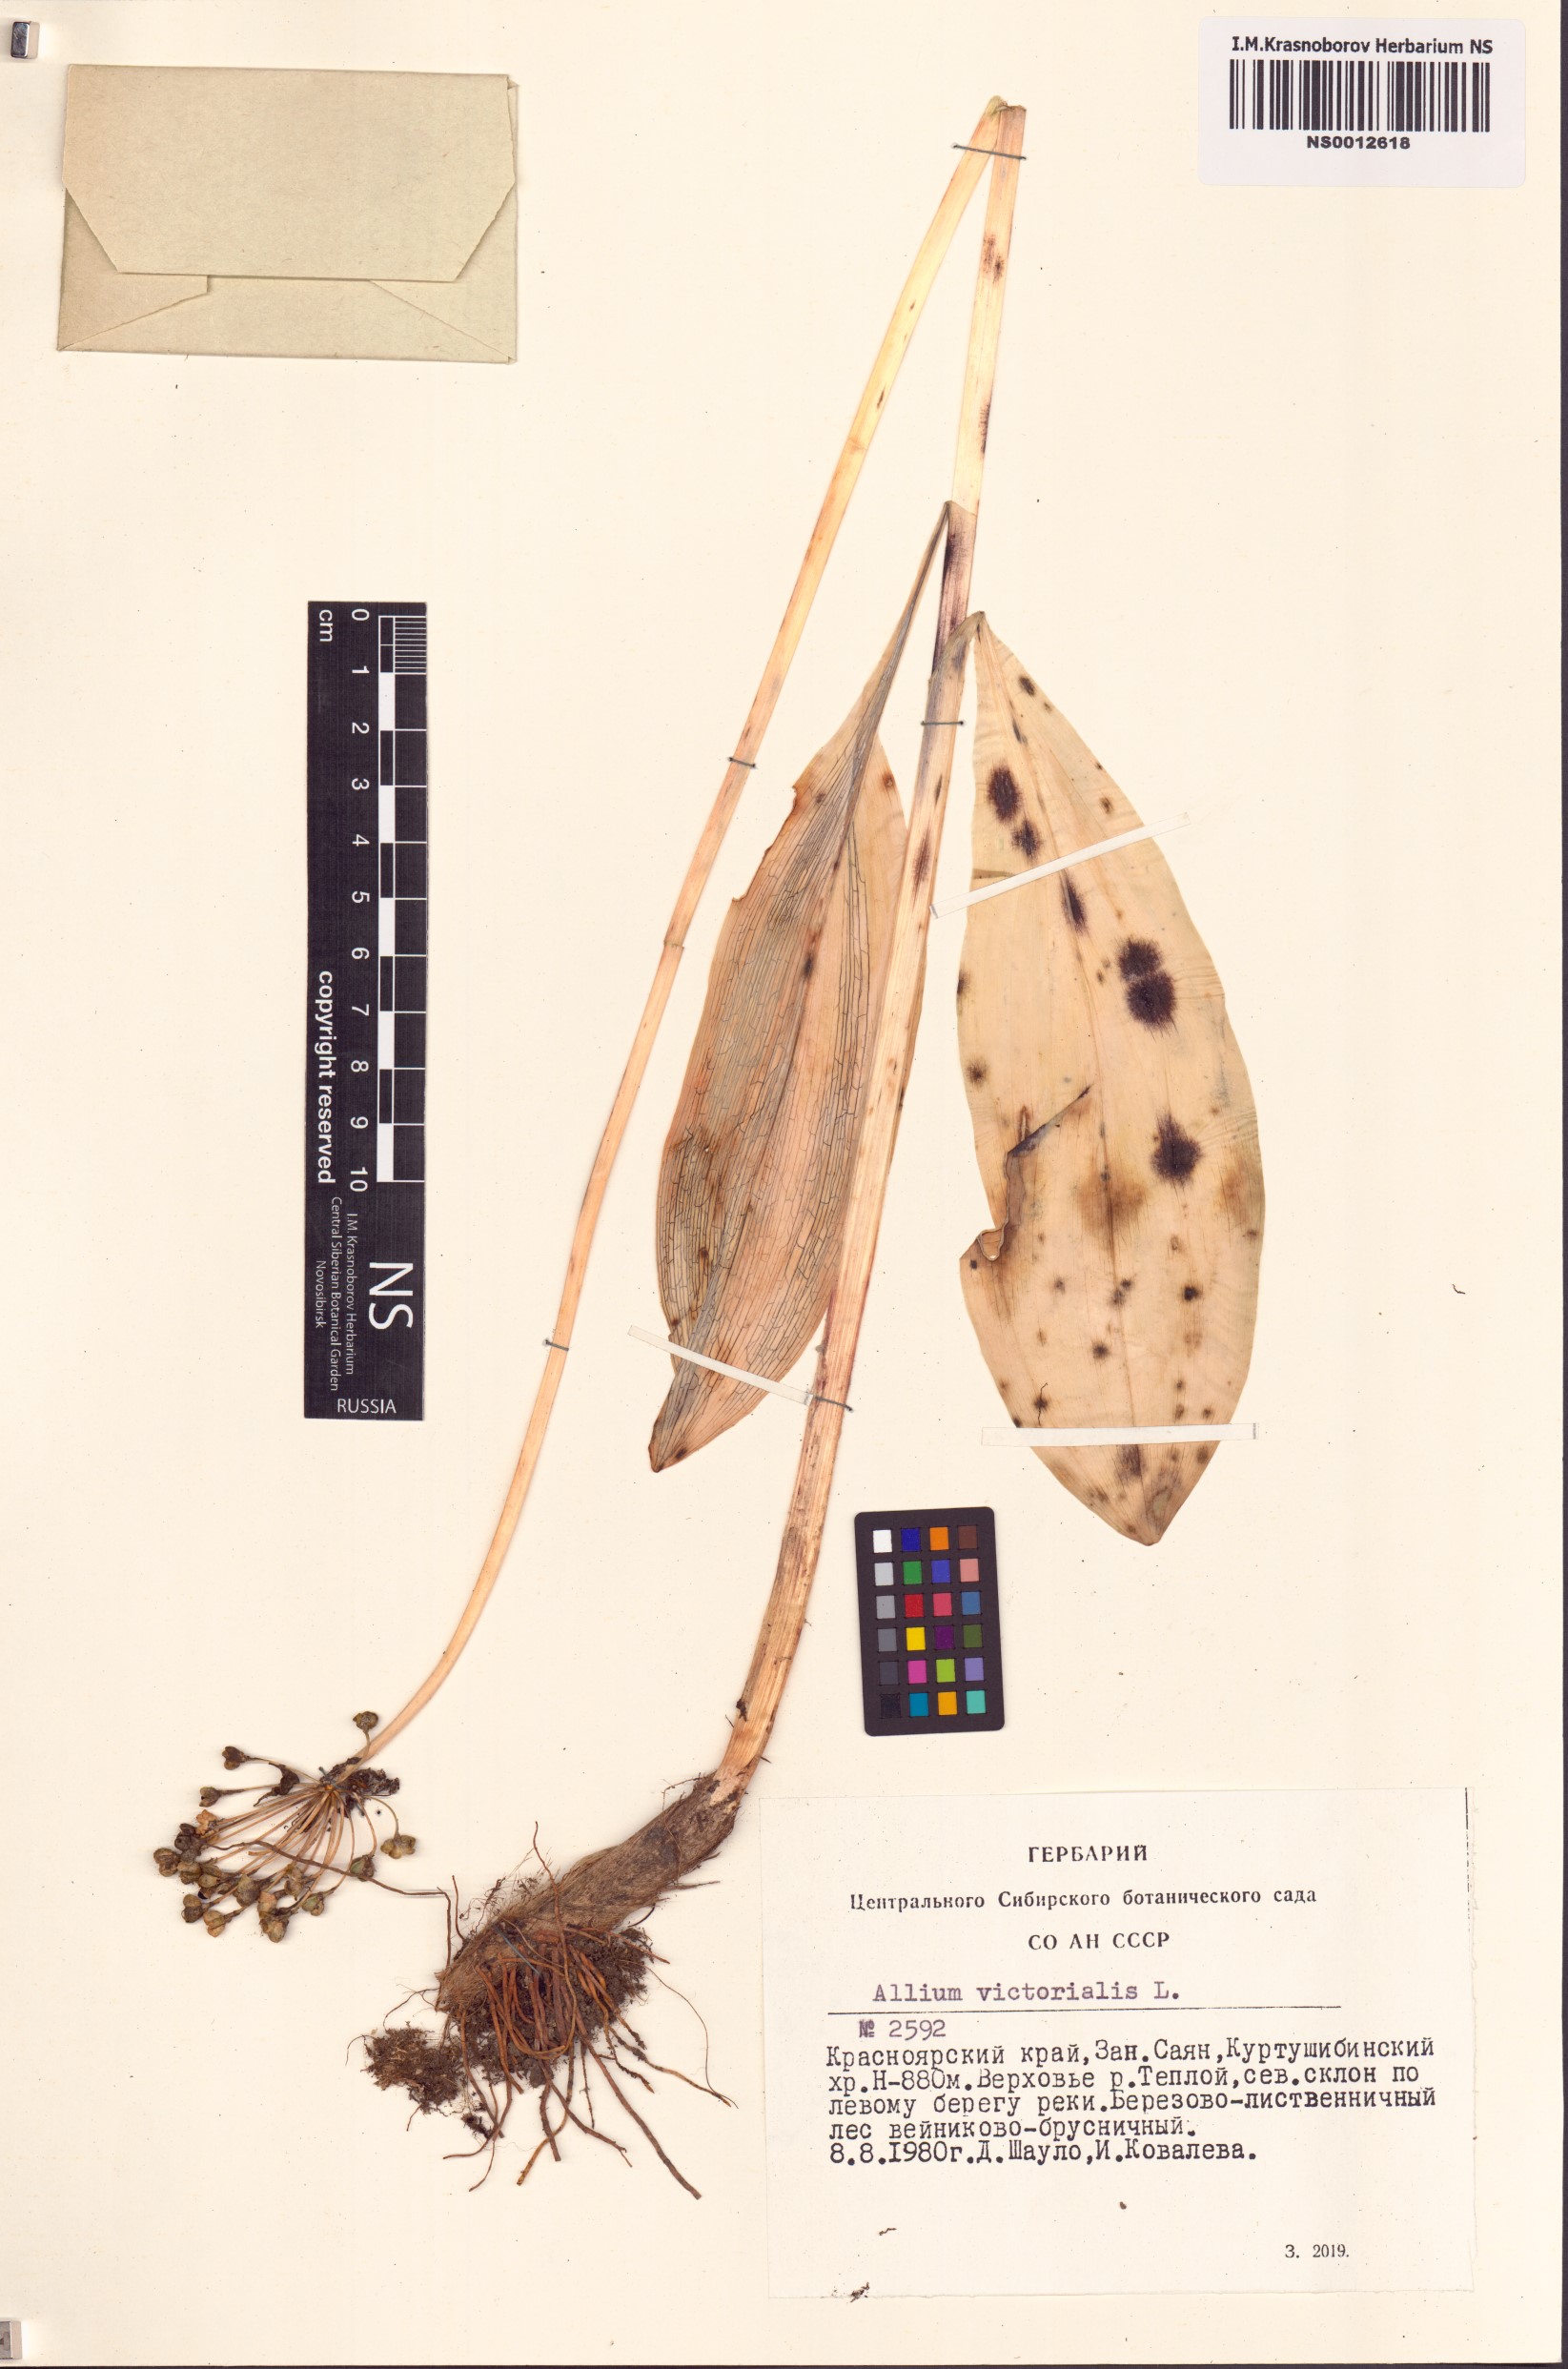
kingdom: Plantae
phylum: Tracheophyta
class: Liliopsida
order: Asparagales
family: Amaryllidaceae
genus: Allium
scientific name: Allium microdictyon
